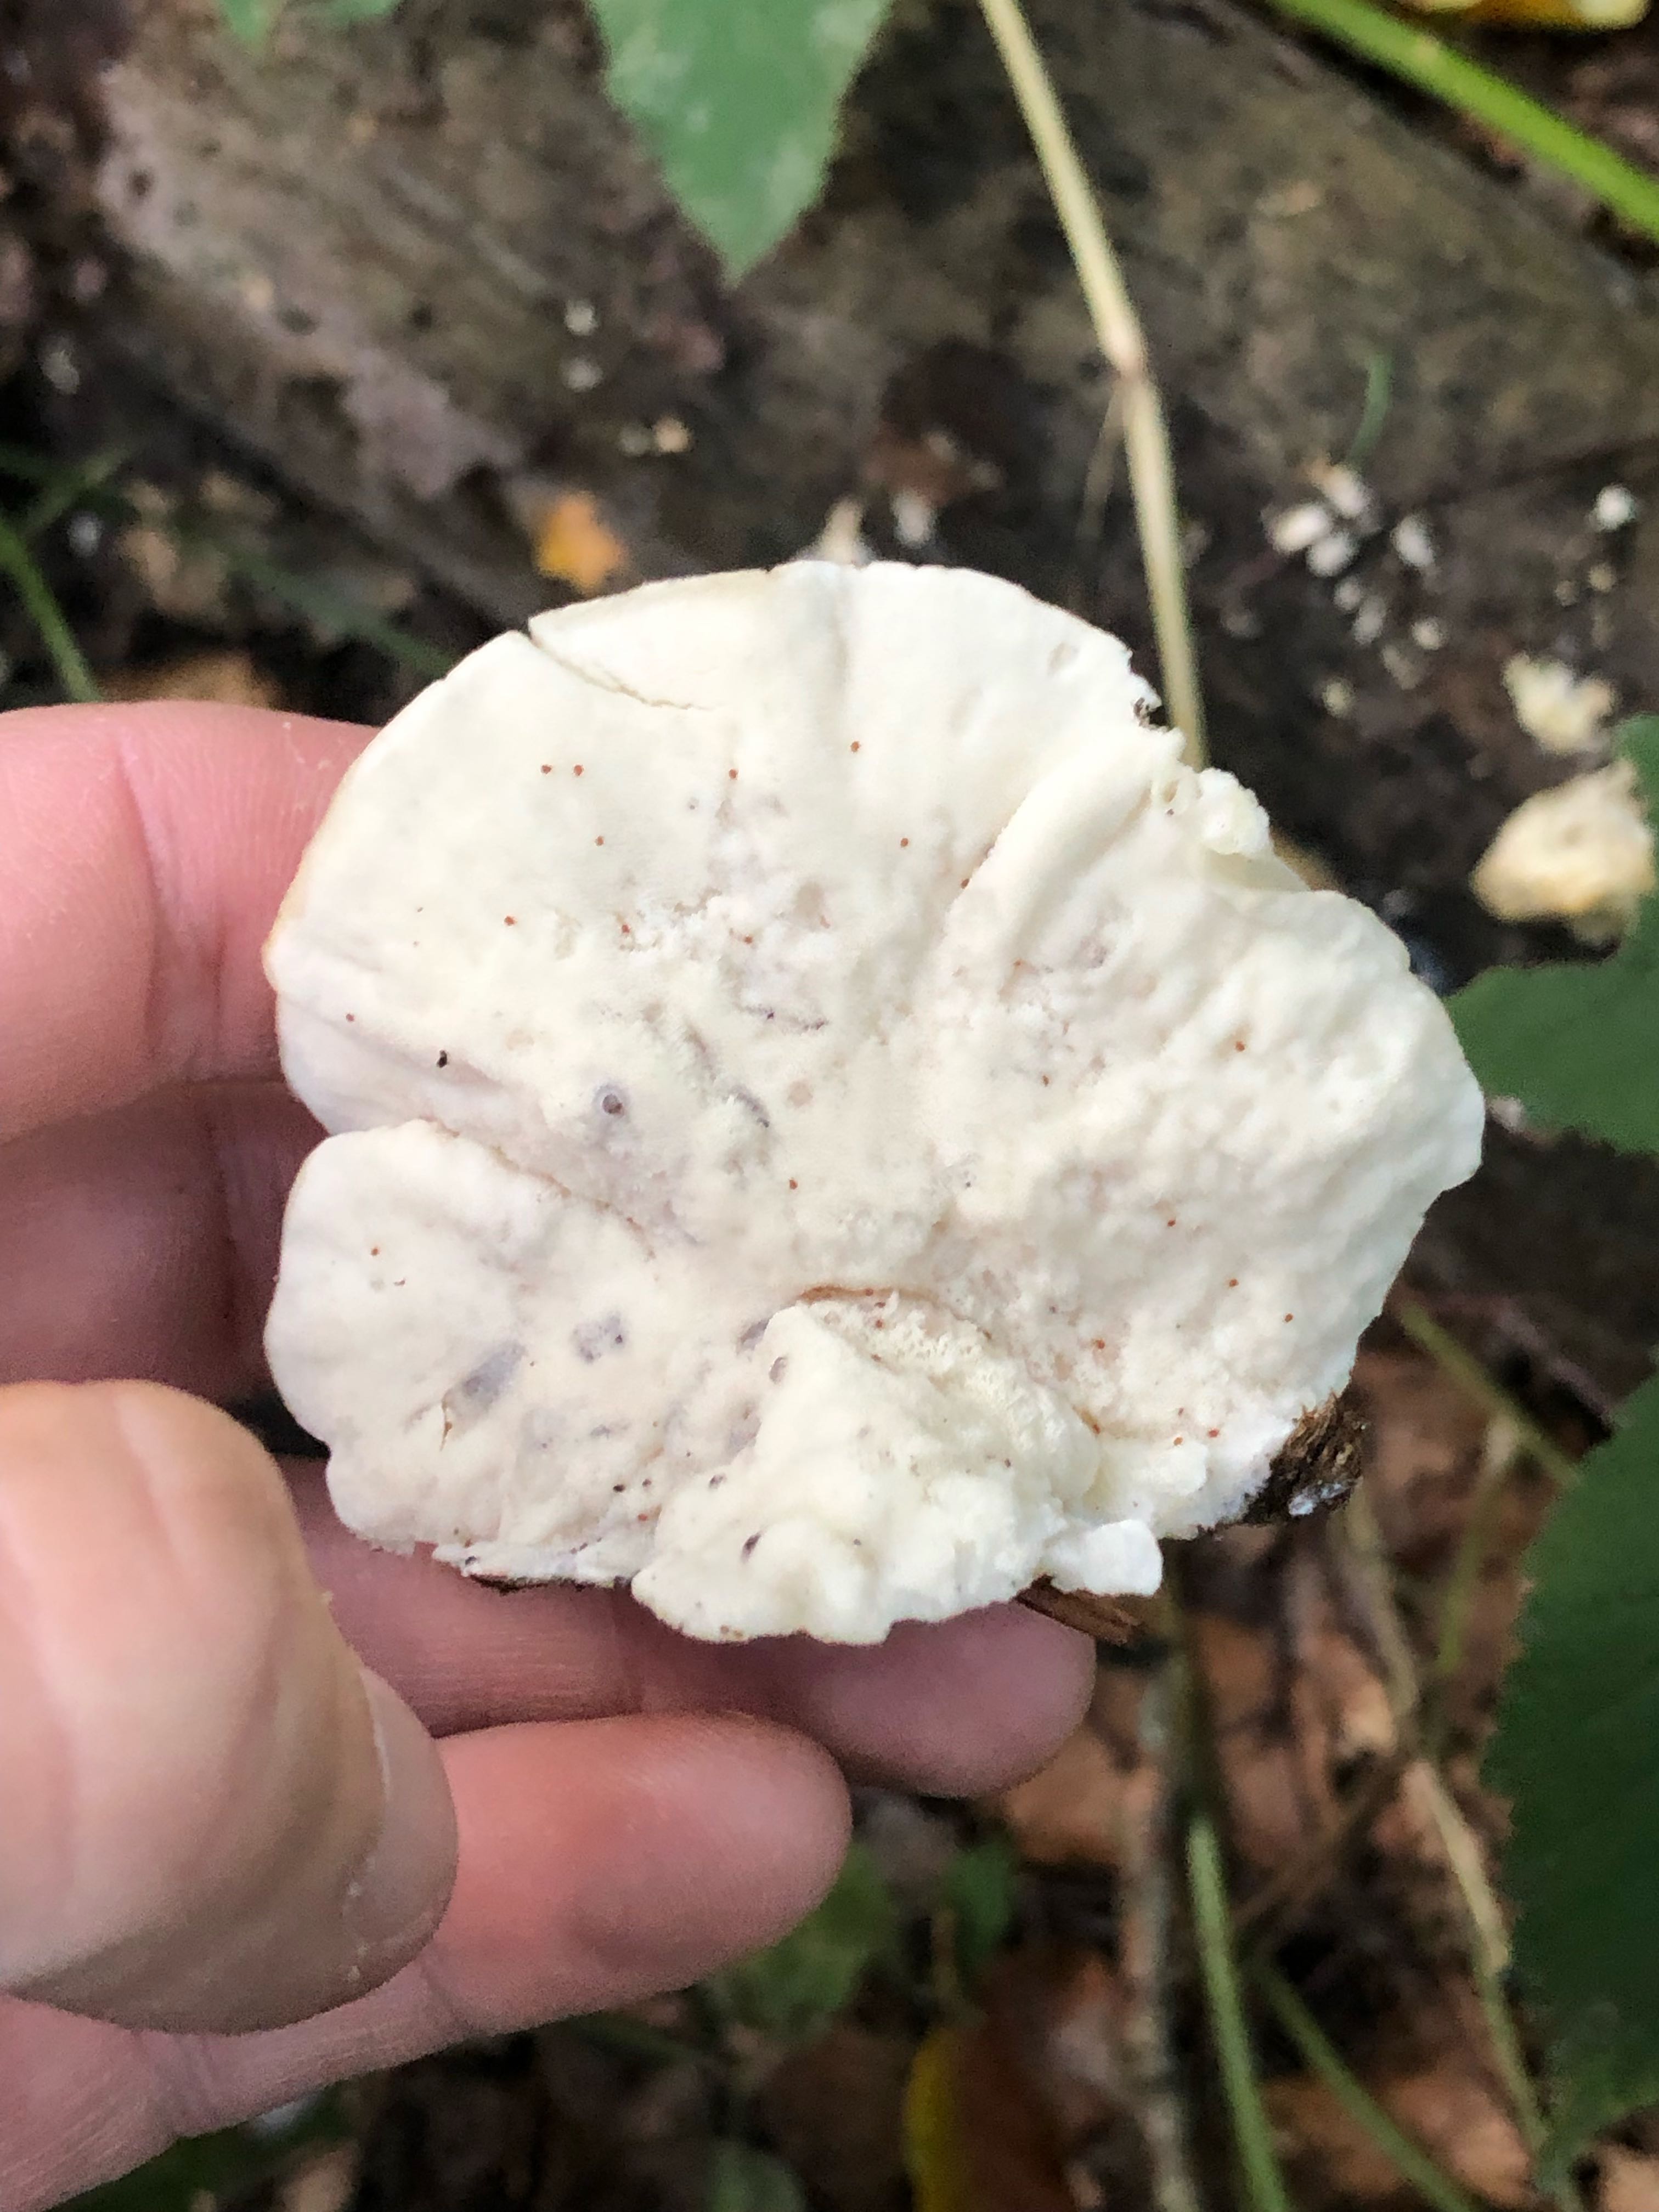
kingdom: Fungi
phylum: Basidiomycota
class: Agaricomycetes
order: Polyporales
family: Dacryobolaceae
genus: Postia
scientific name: Postia
